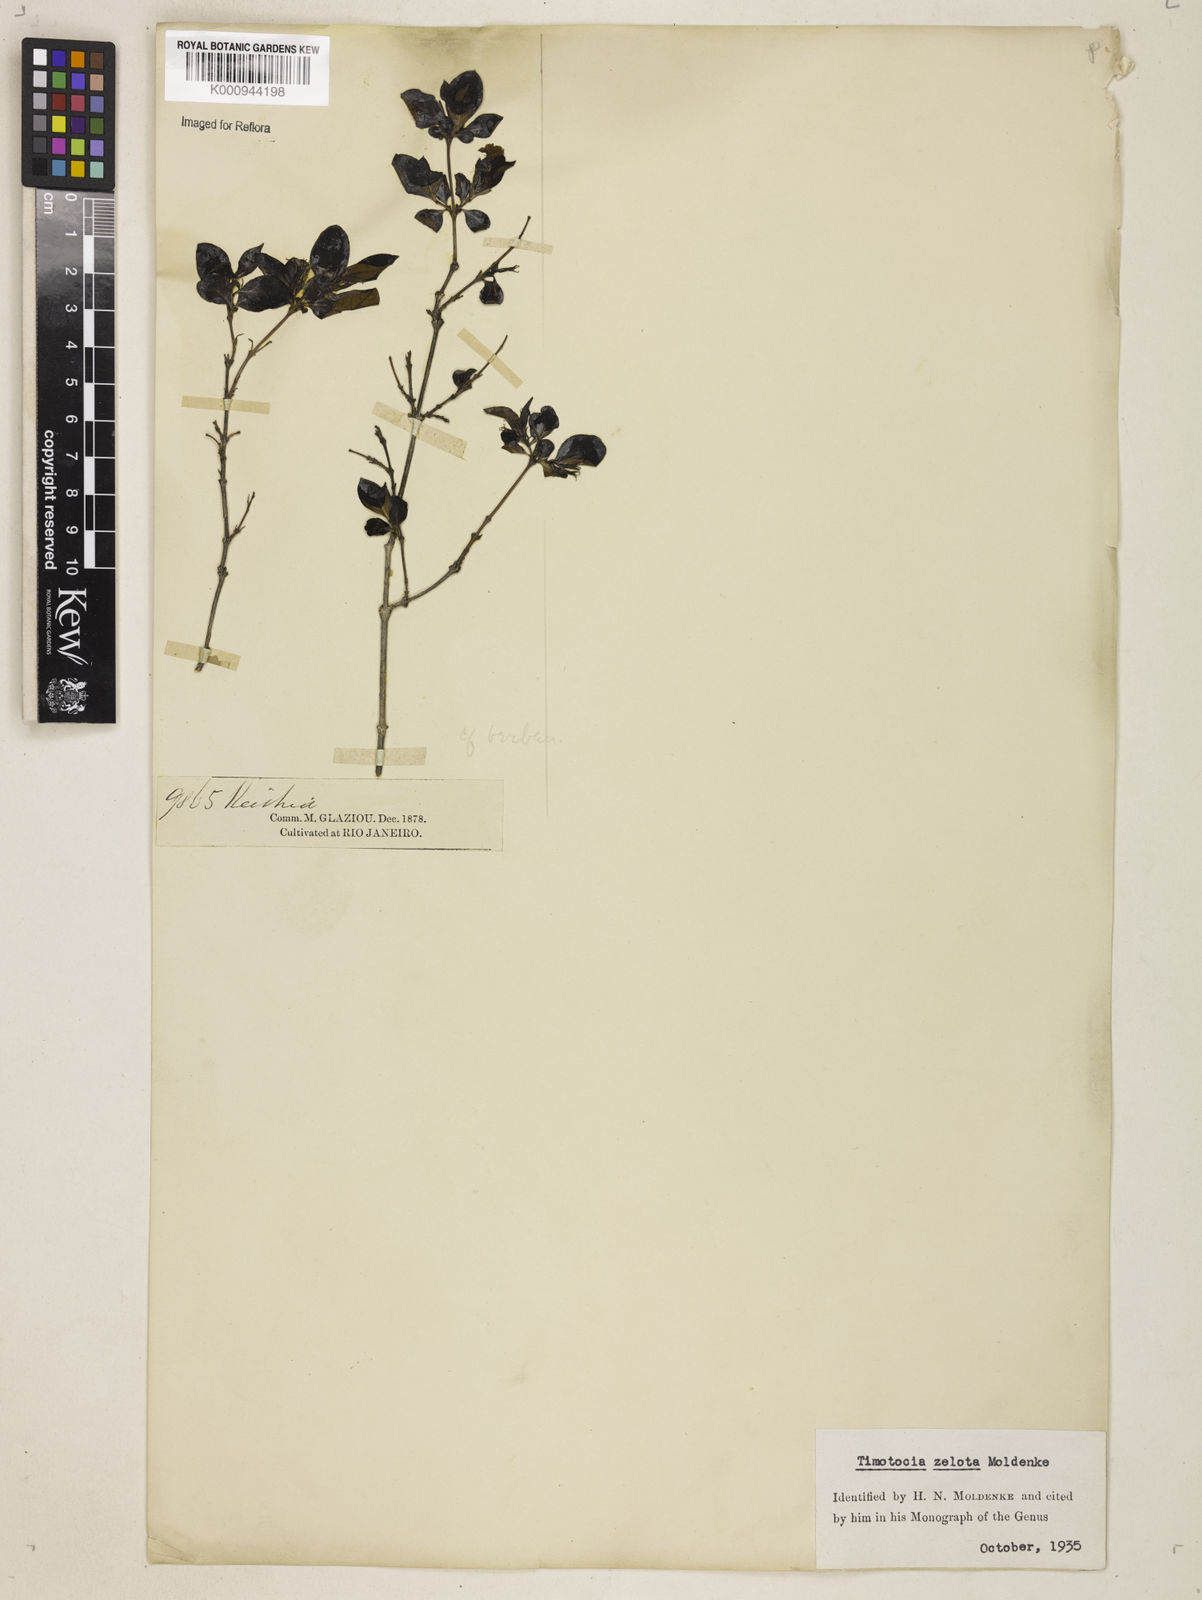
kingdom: Plantae
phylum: Tracheophyta
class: Magnoliopsida
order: Lamiales
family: Verbenaceae
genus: Casselia
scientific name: Casselia zelota
